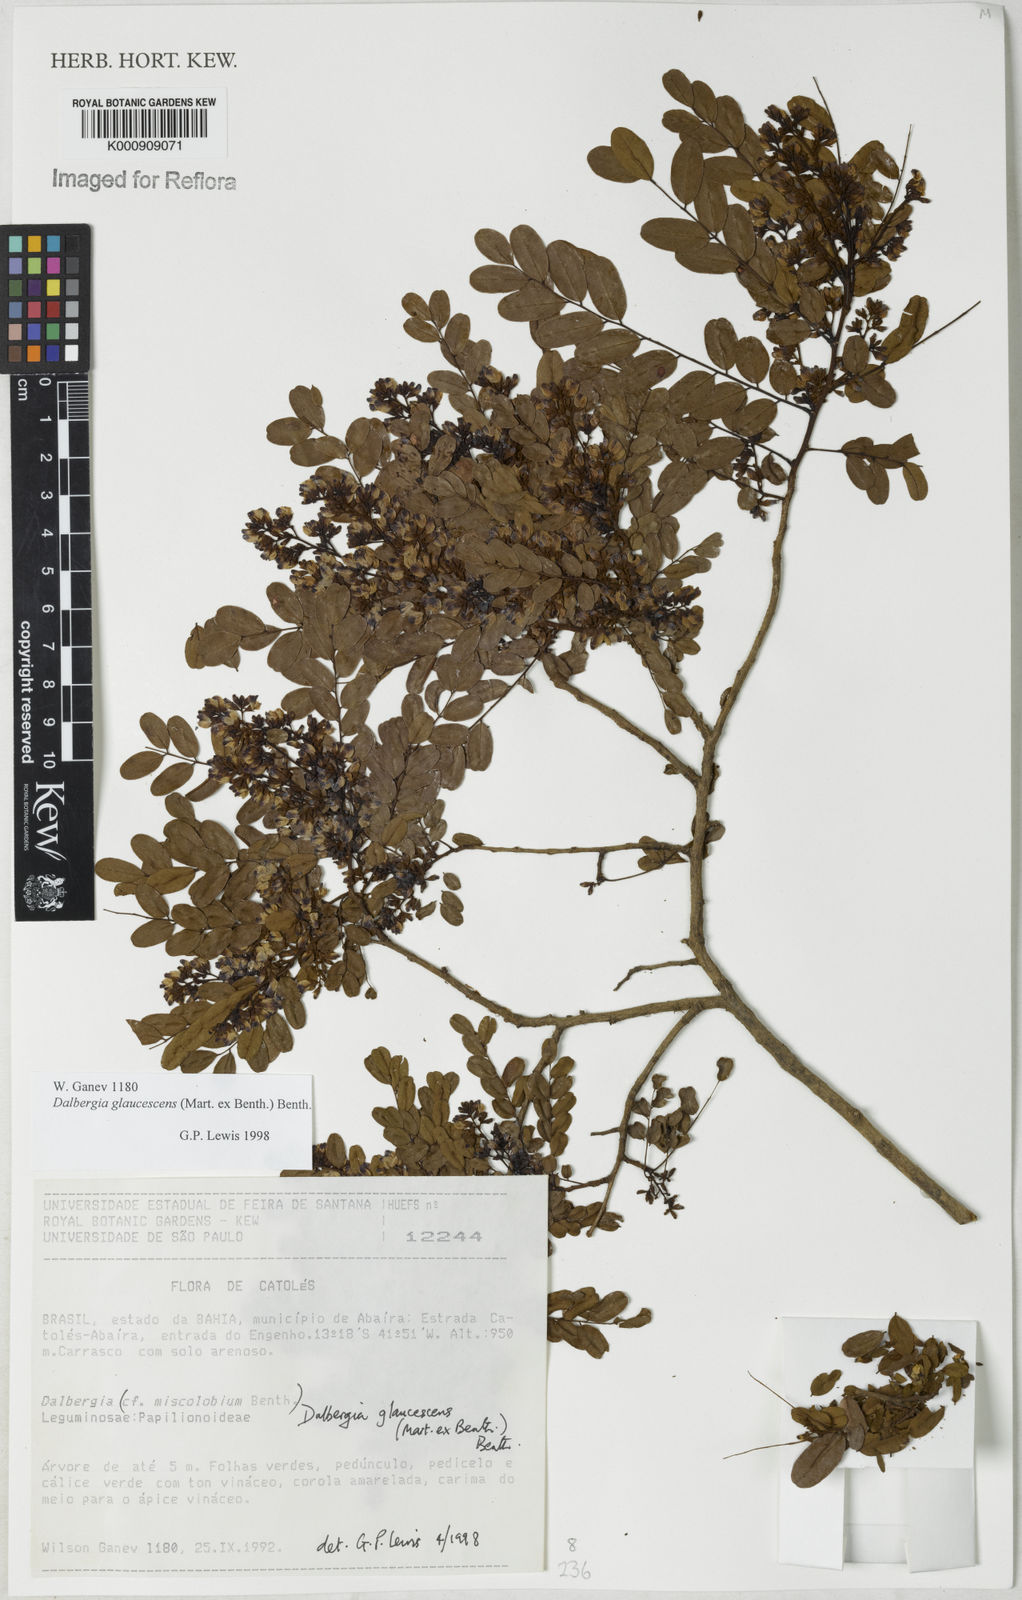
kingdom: Plantae
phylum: Tracheophyta
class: Magnoliopsida
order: Fabales
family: Fabaceae
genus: Dalbergia
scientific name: Dalbergia glaucescens
